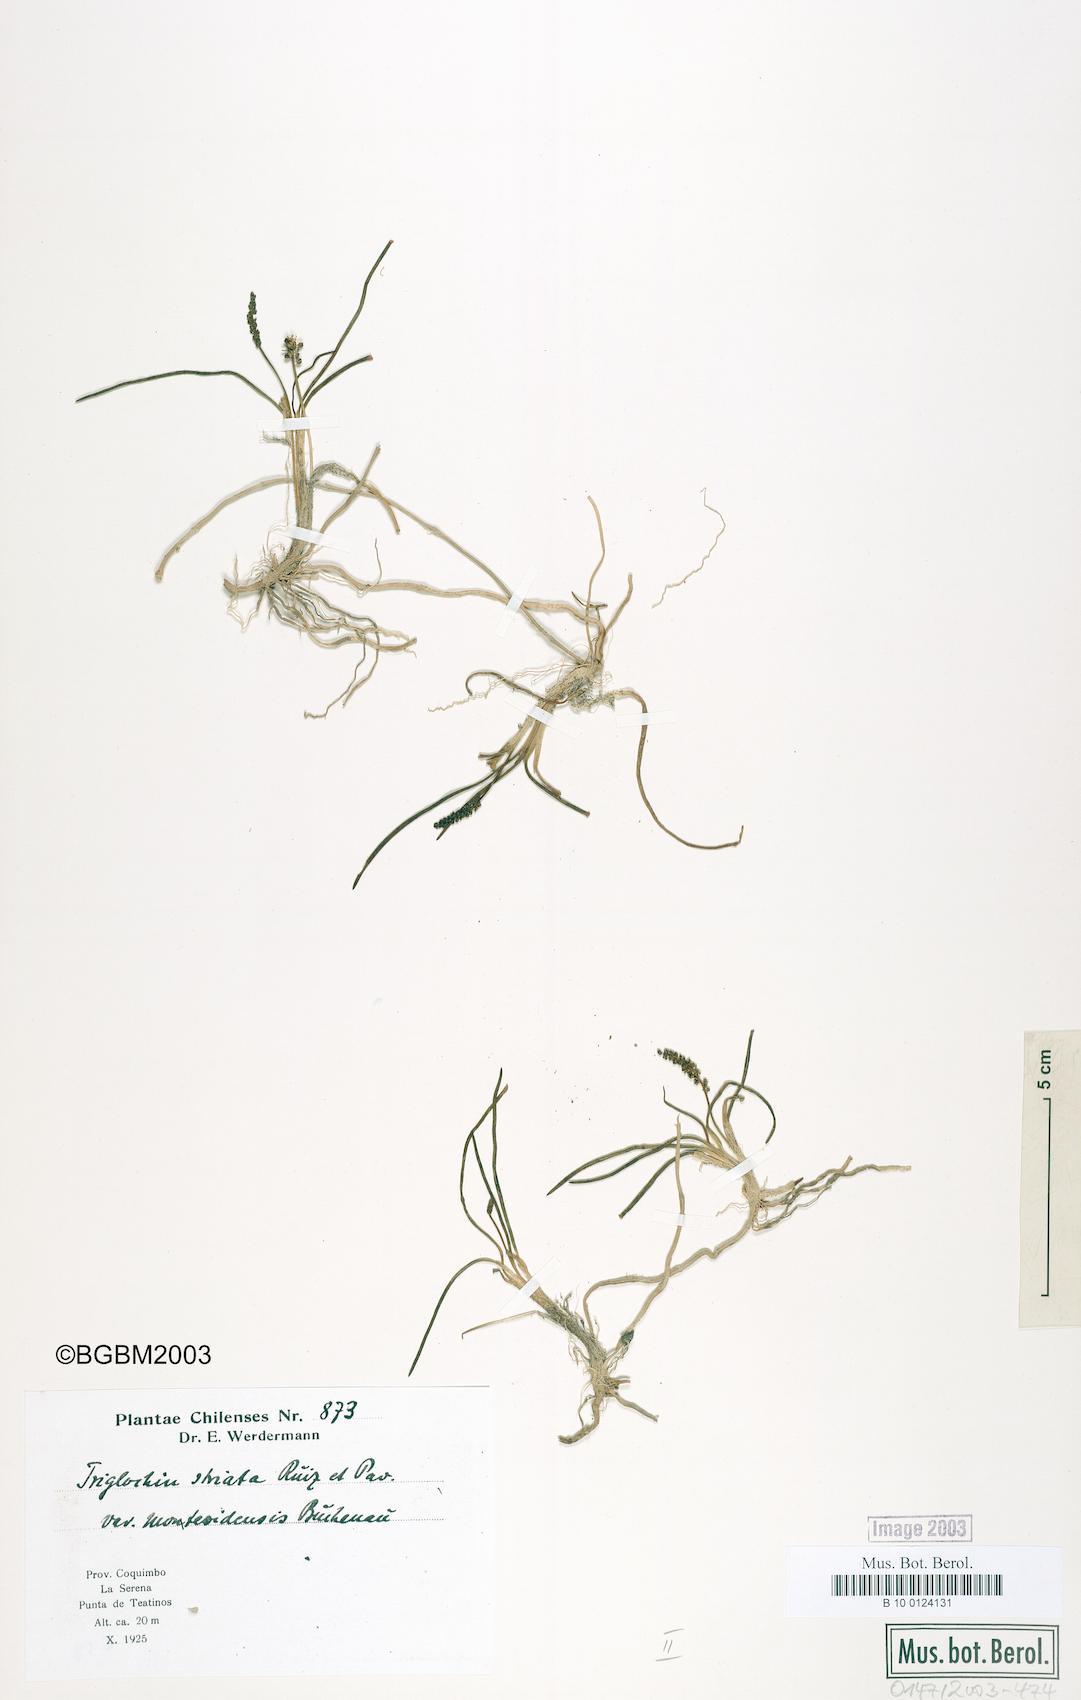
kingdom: Plantae
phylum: Tracheophyta
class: Liliopsida
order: Alismatales
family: Juncaginaceae
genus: Triglochin
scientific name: Triglochin striata
